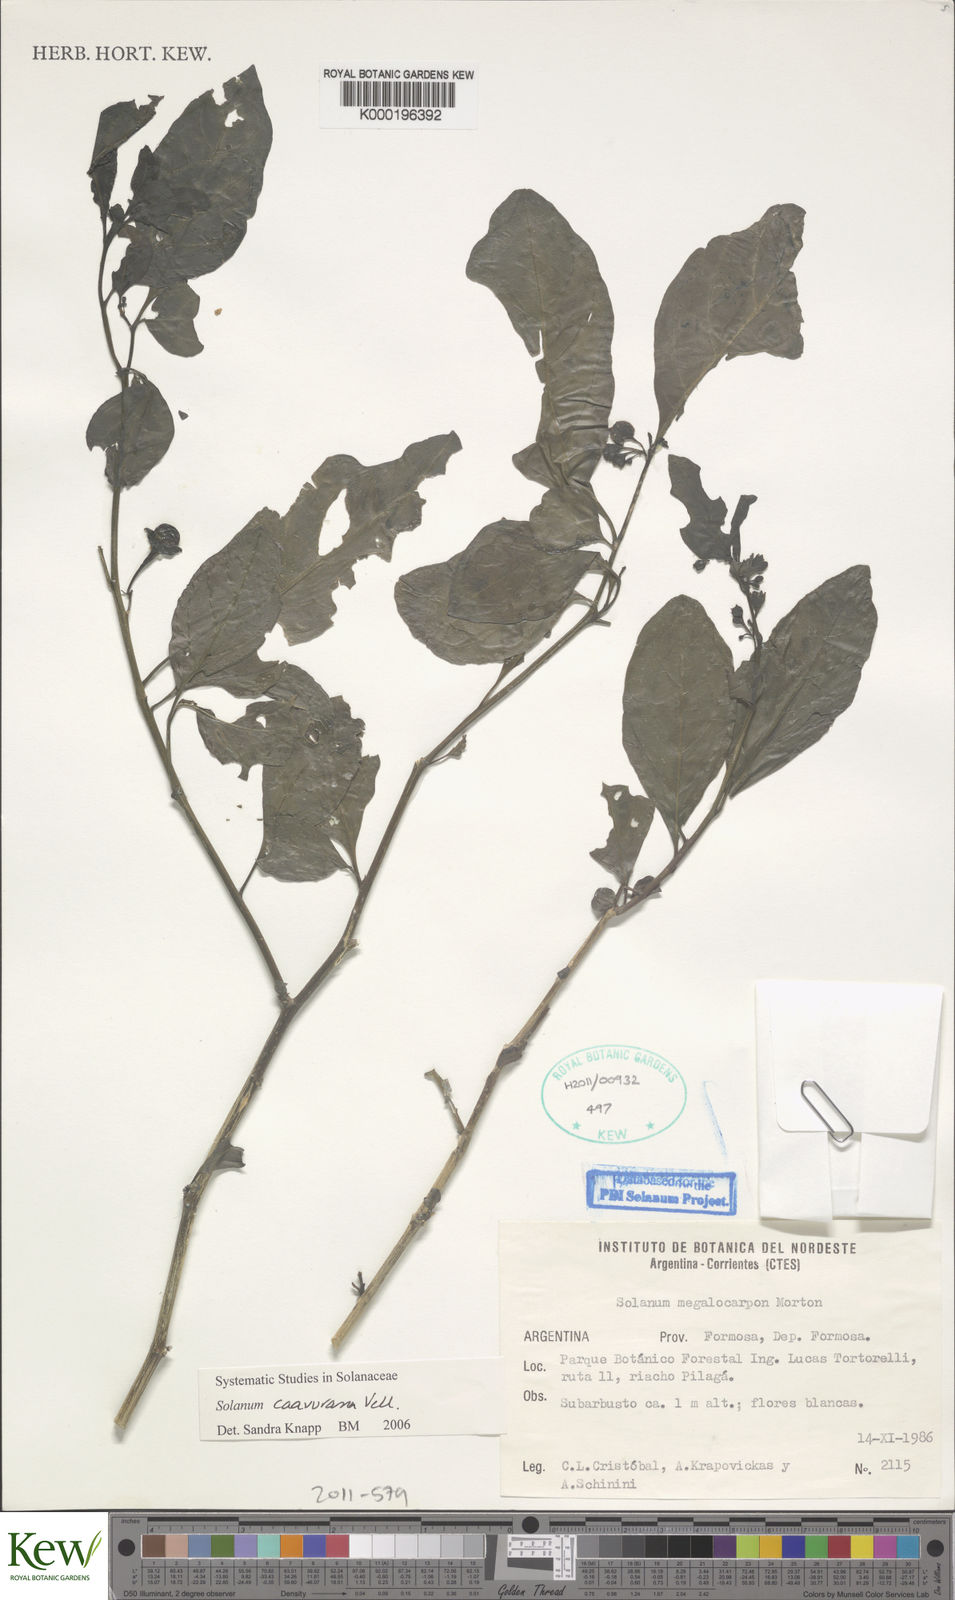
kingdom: Plantae
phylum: Tracheophyta
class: Magnoliopsida
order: Solanales
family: Solanaceae
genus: Solanum
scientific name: Solanum caavurana
